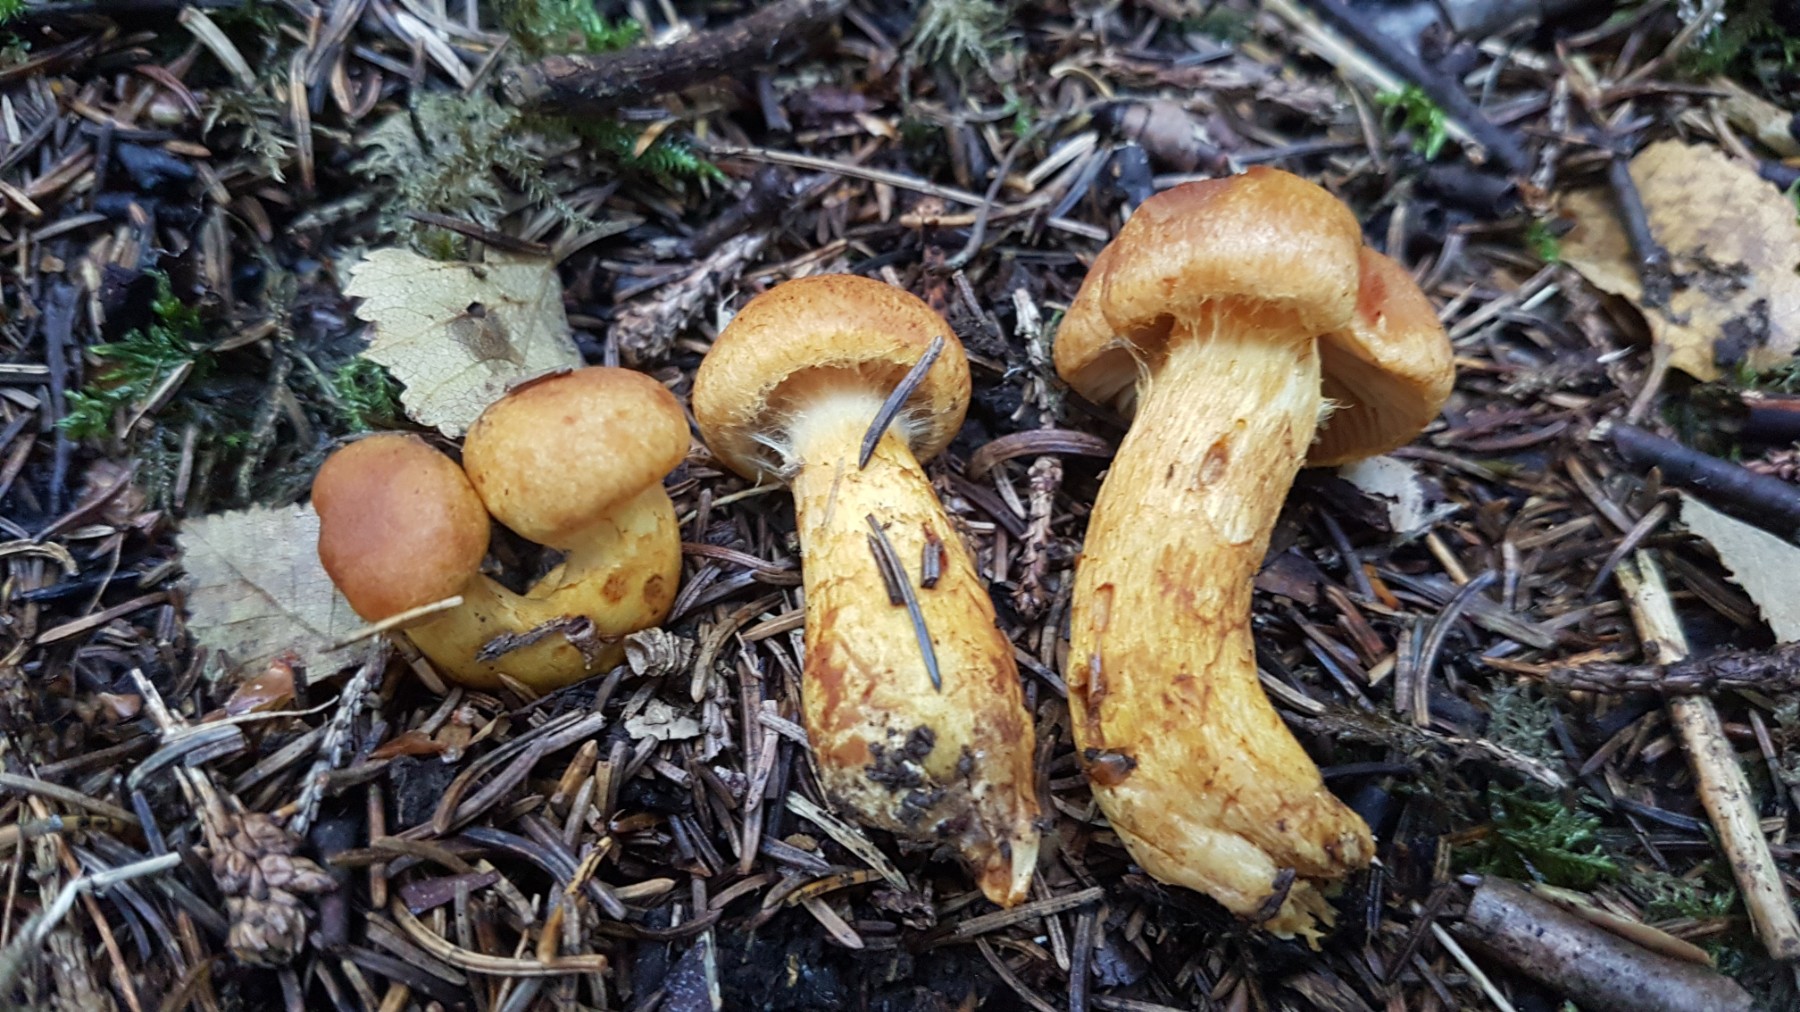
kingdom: Fungi
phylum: Basidiomycota
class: Agaricomycetes
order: Agaricales
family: Cortinariaceae
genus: Aureonarius
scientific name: Aureonarius callisteus
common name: lokomotiv-slørhat
